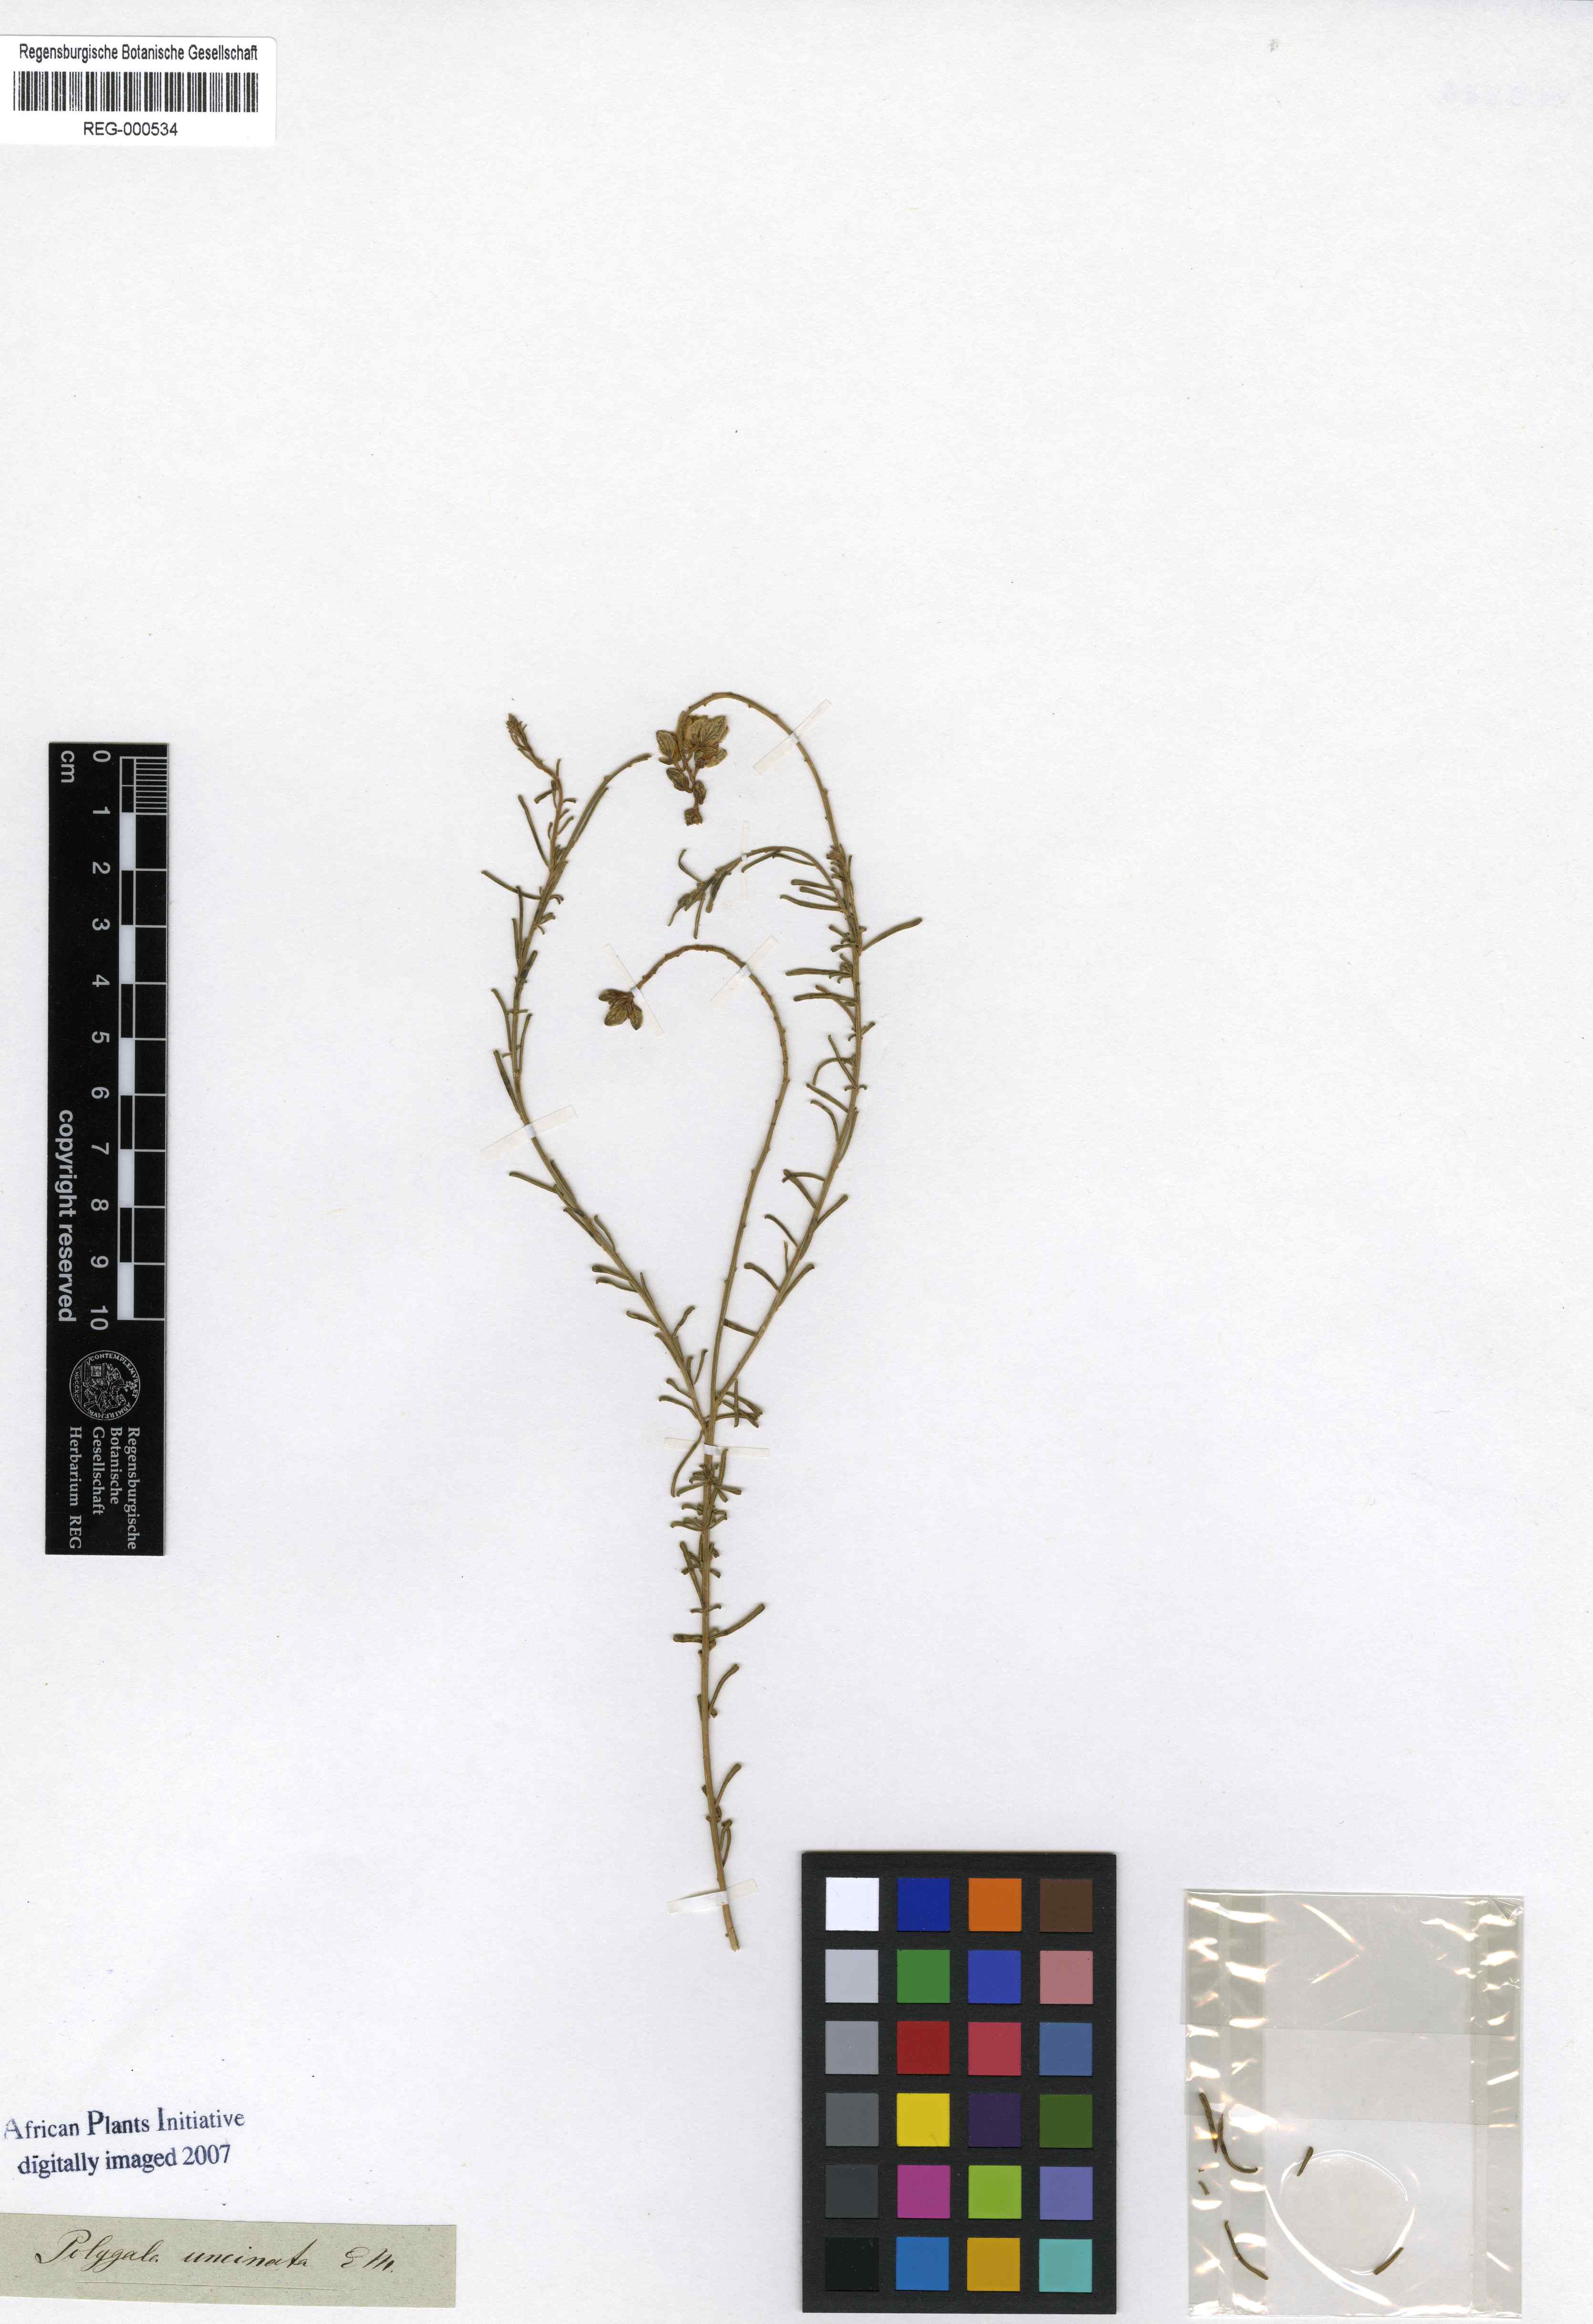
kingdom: Plantae
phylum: Tracheophyta
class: Magnoliopsida
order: Fabales
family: Polygalaceae
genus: Polygala
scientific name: Polygala uncinata
